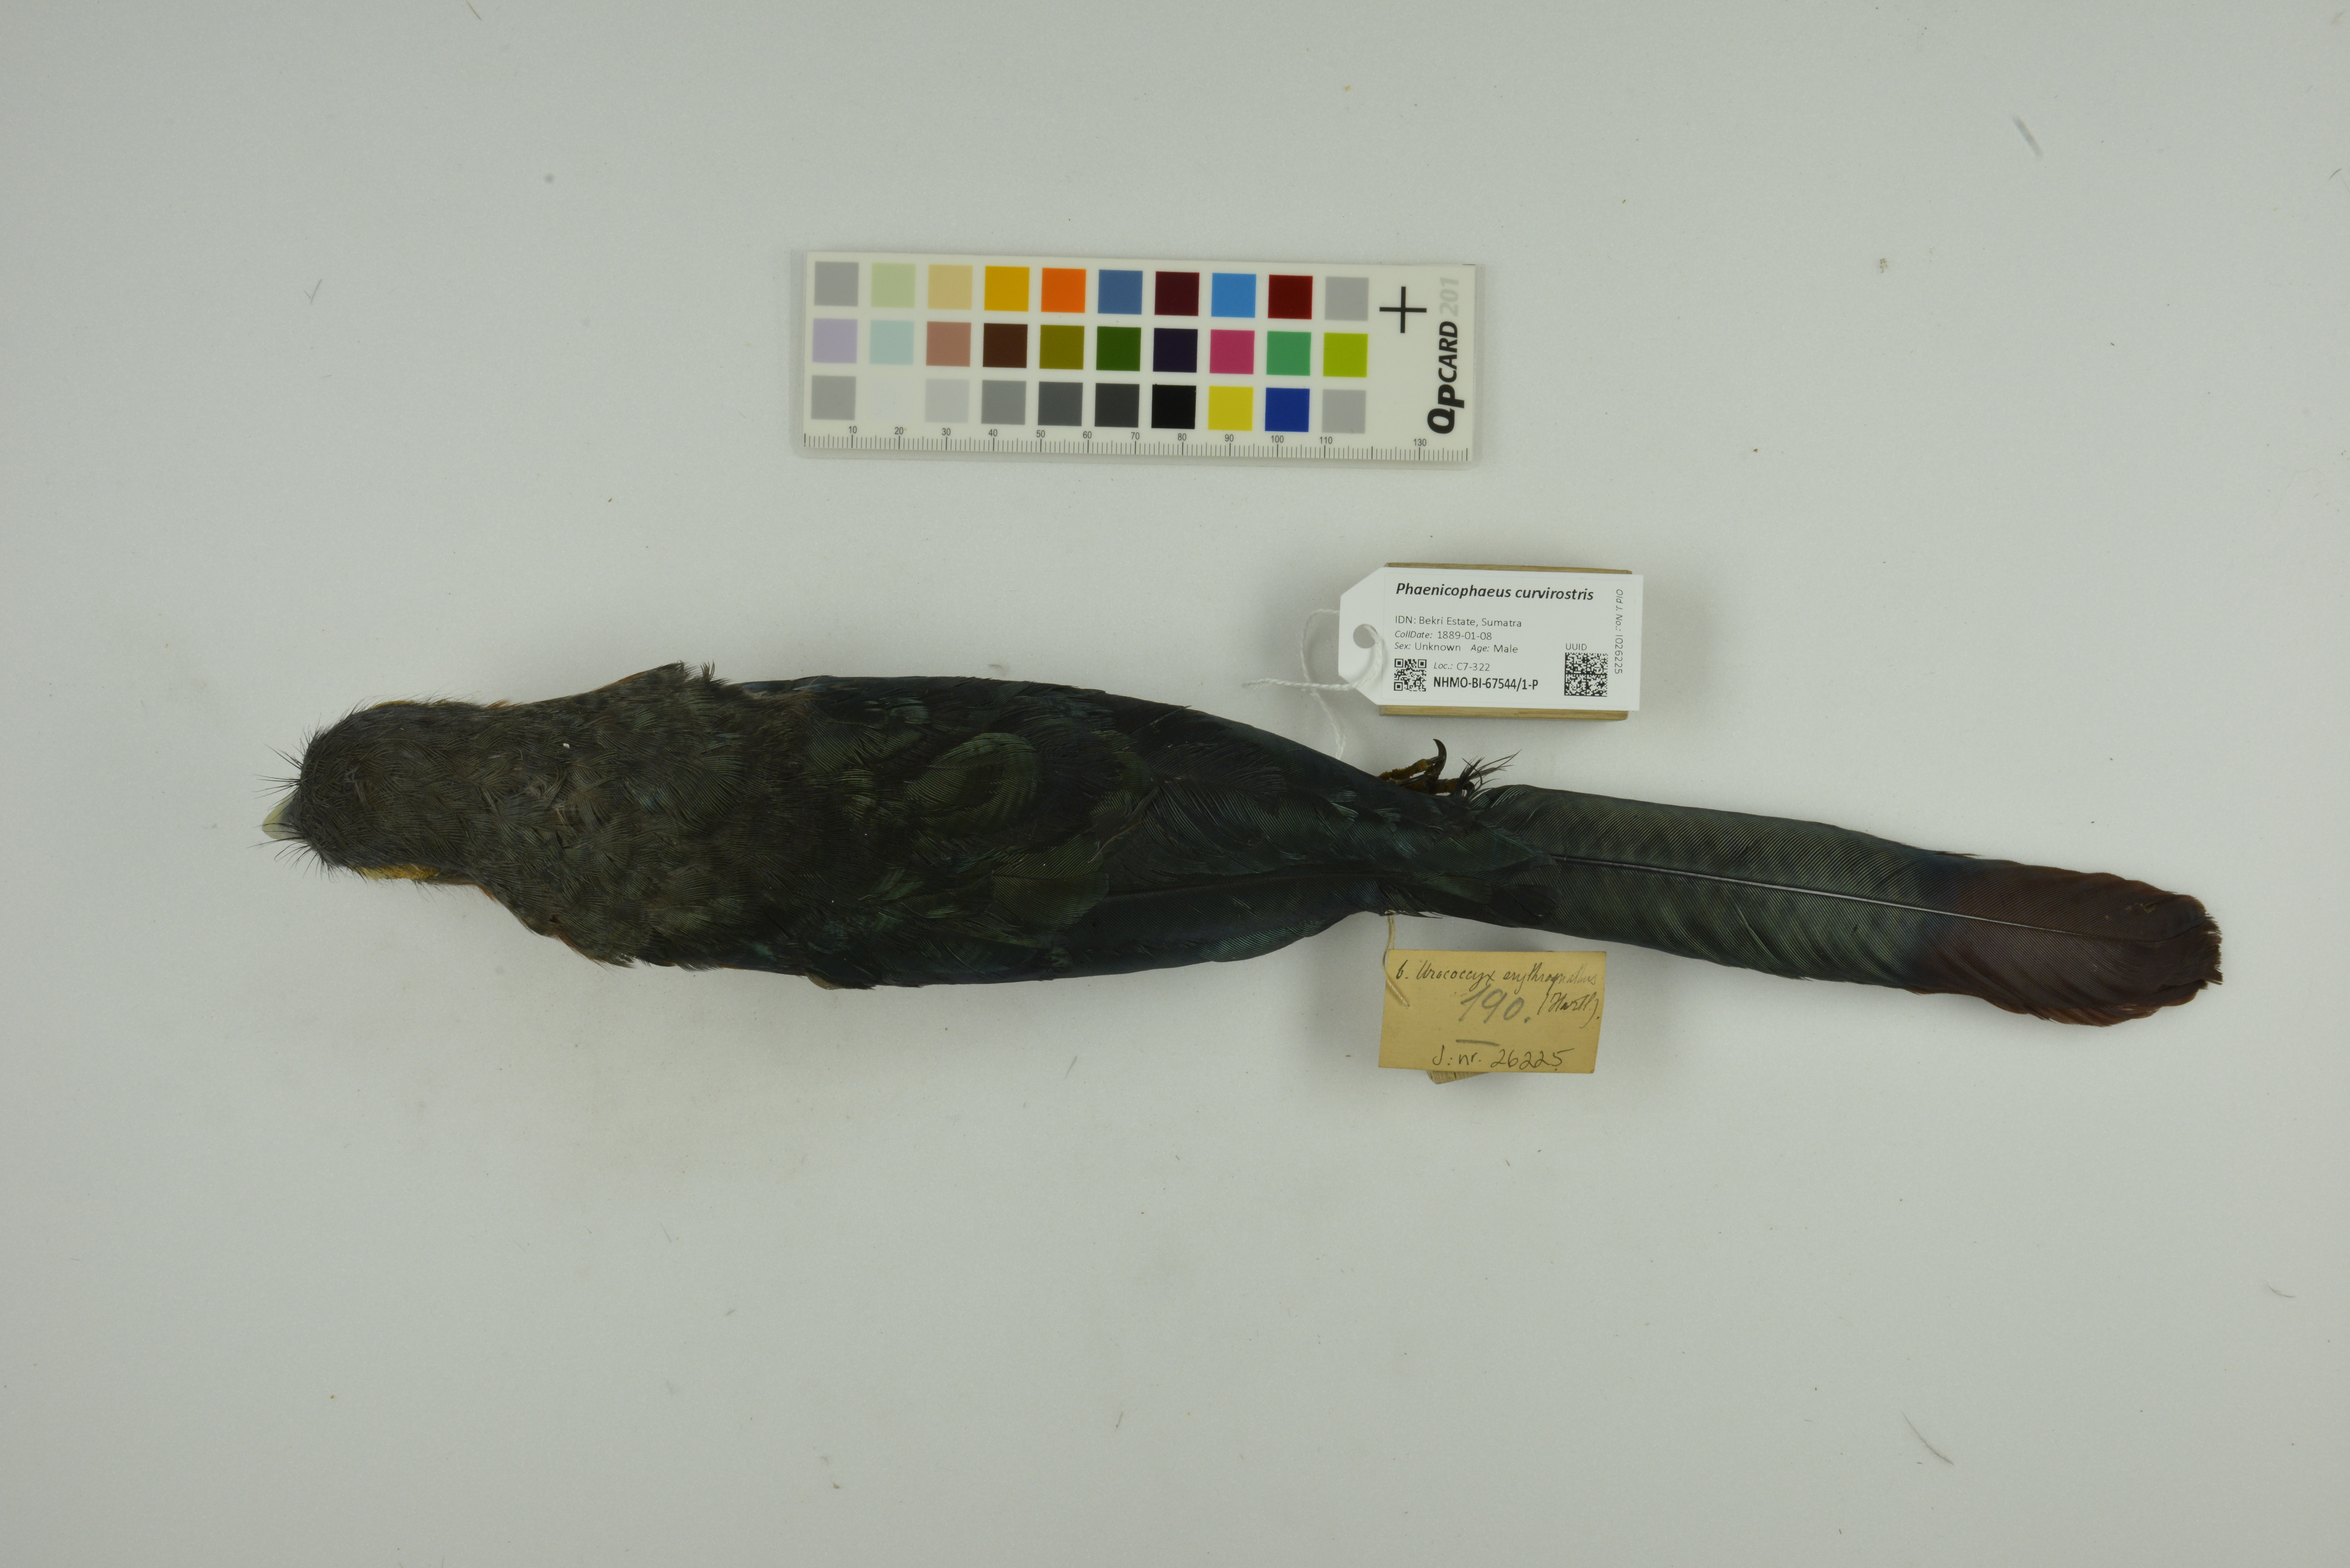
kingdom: Animalia
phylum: Chordata
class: Aves
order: Cuculiformes
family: Cuculidae
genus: Zanclostomus
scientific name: Zanclostomus curvirostris
